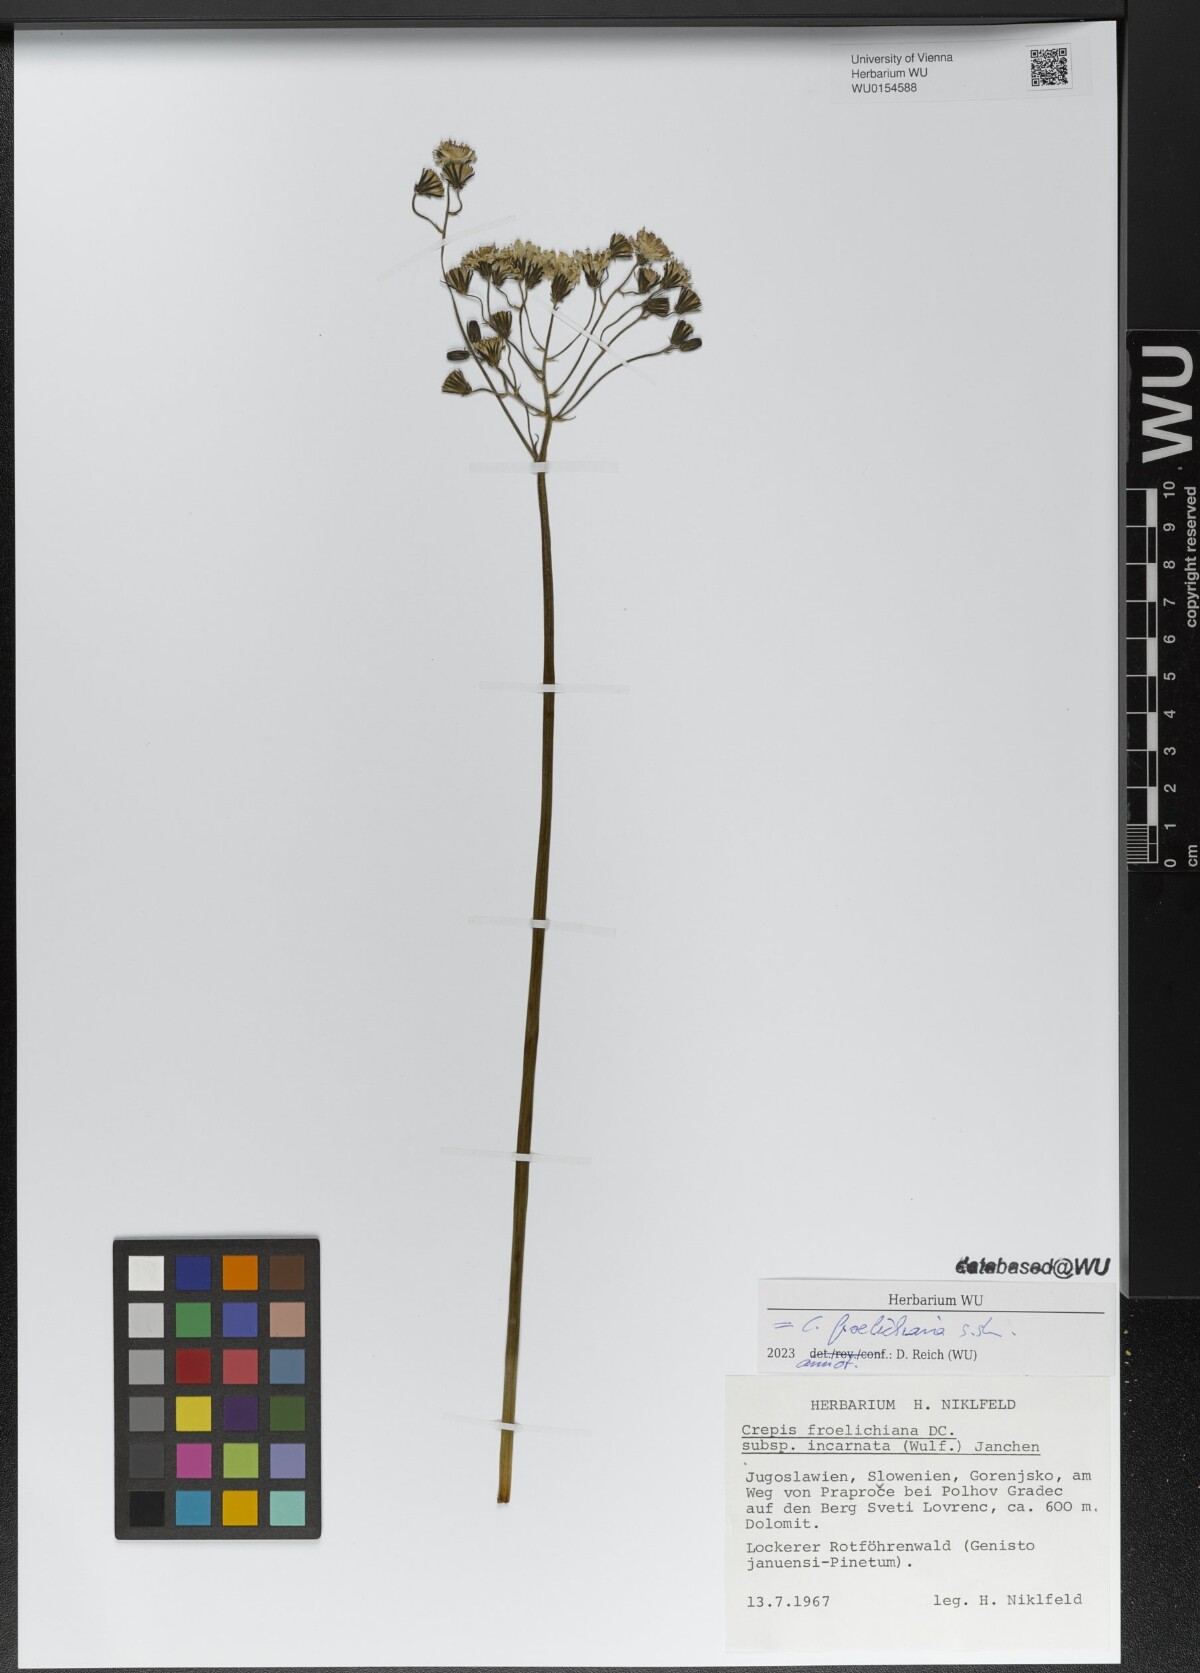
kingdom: Plantae
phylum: Tracheophyta
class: Magnoliopsida
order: Asterales
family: Asteraceae
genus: Crepis
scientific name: Crepis froelichiana
